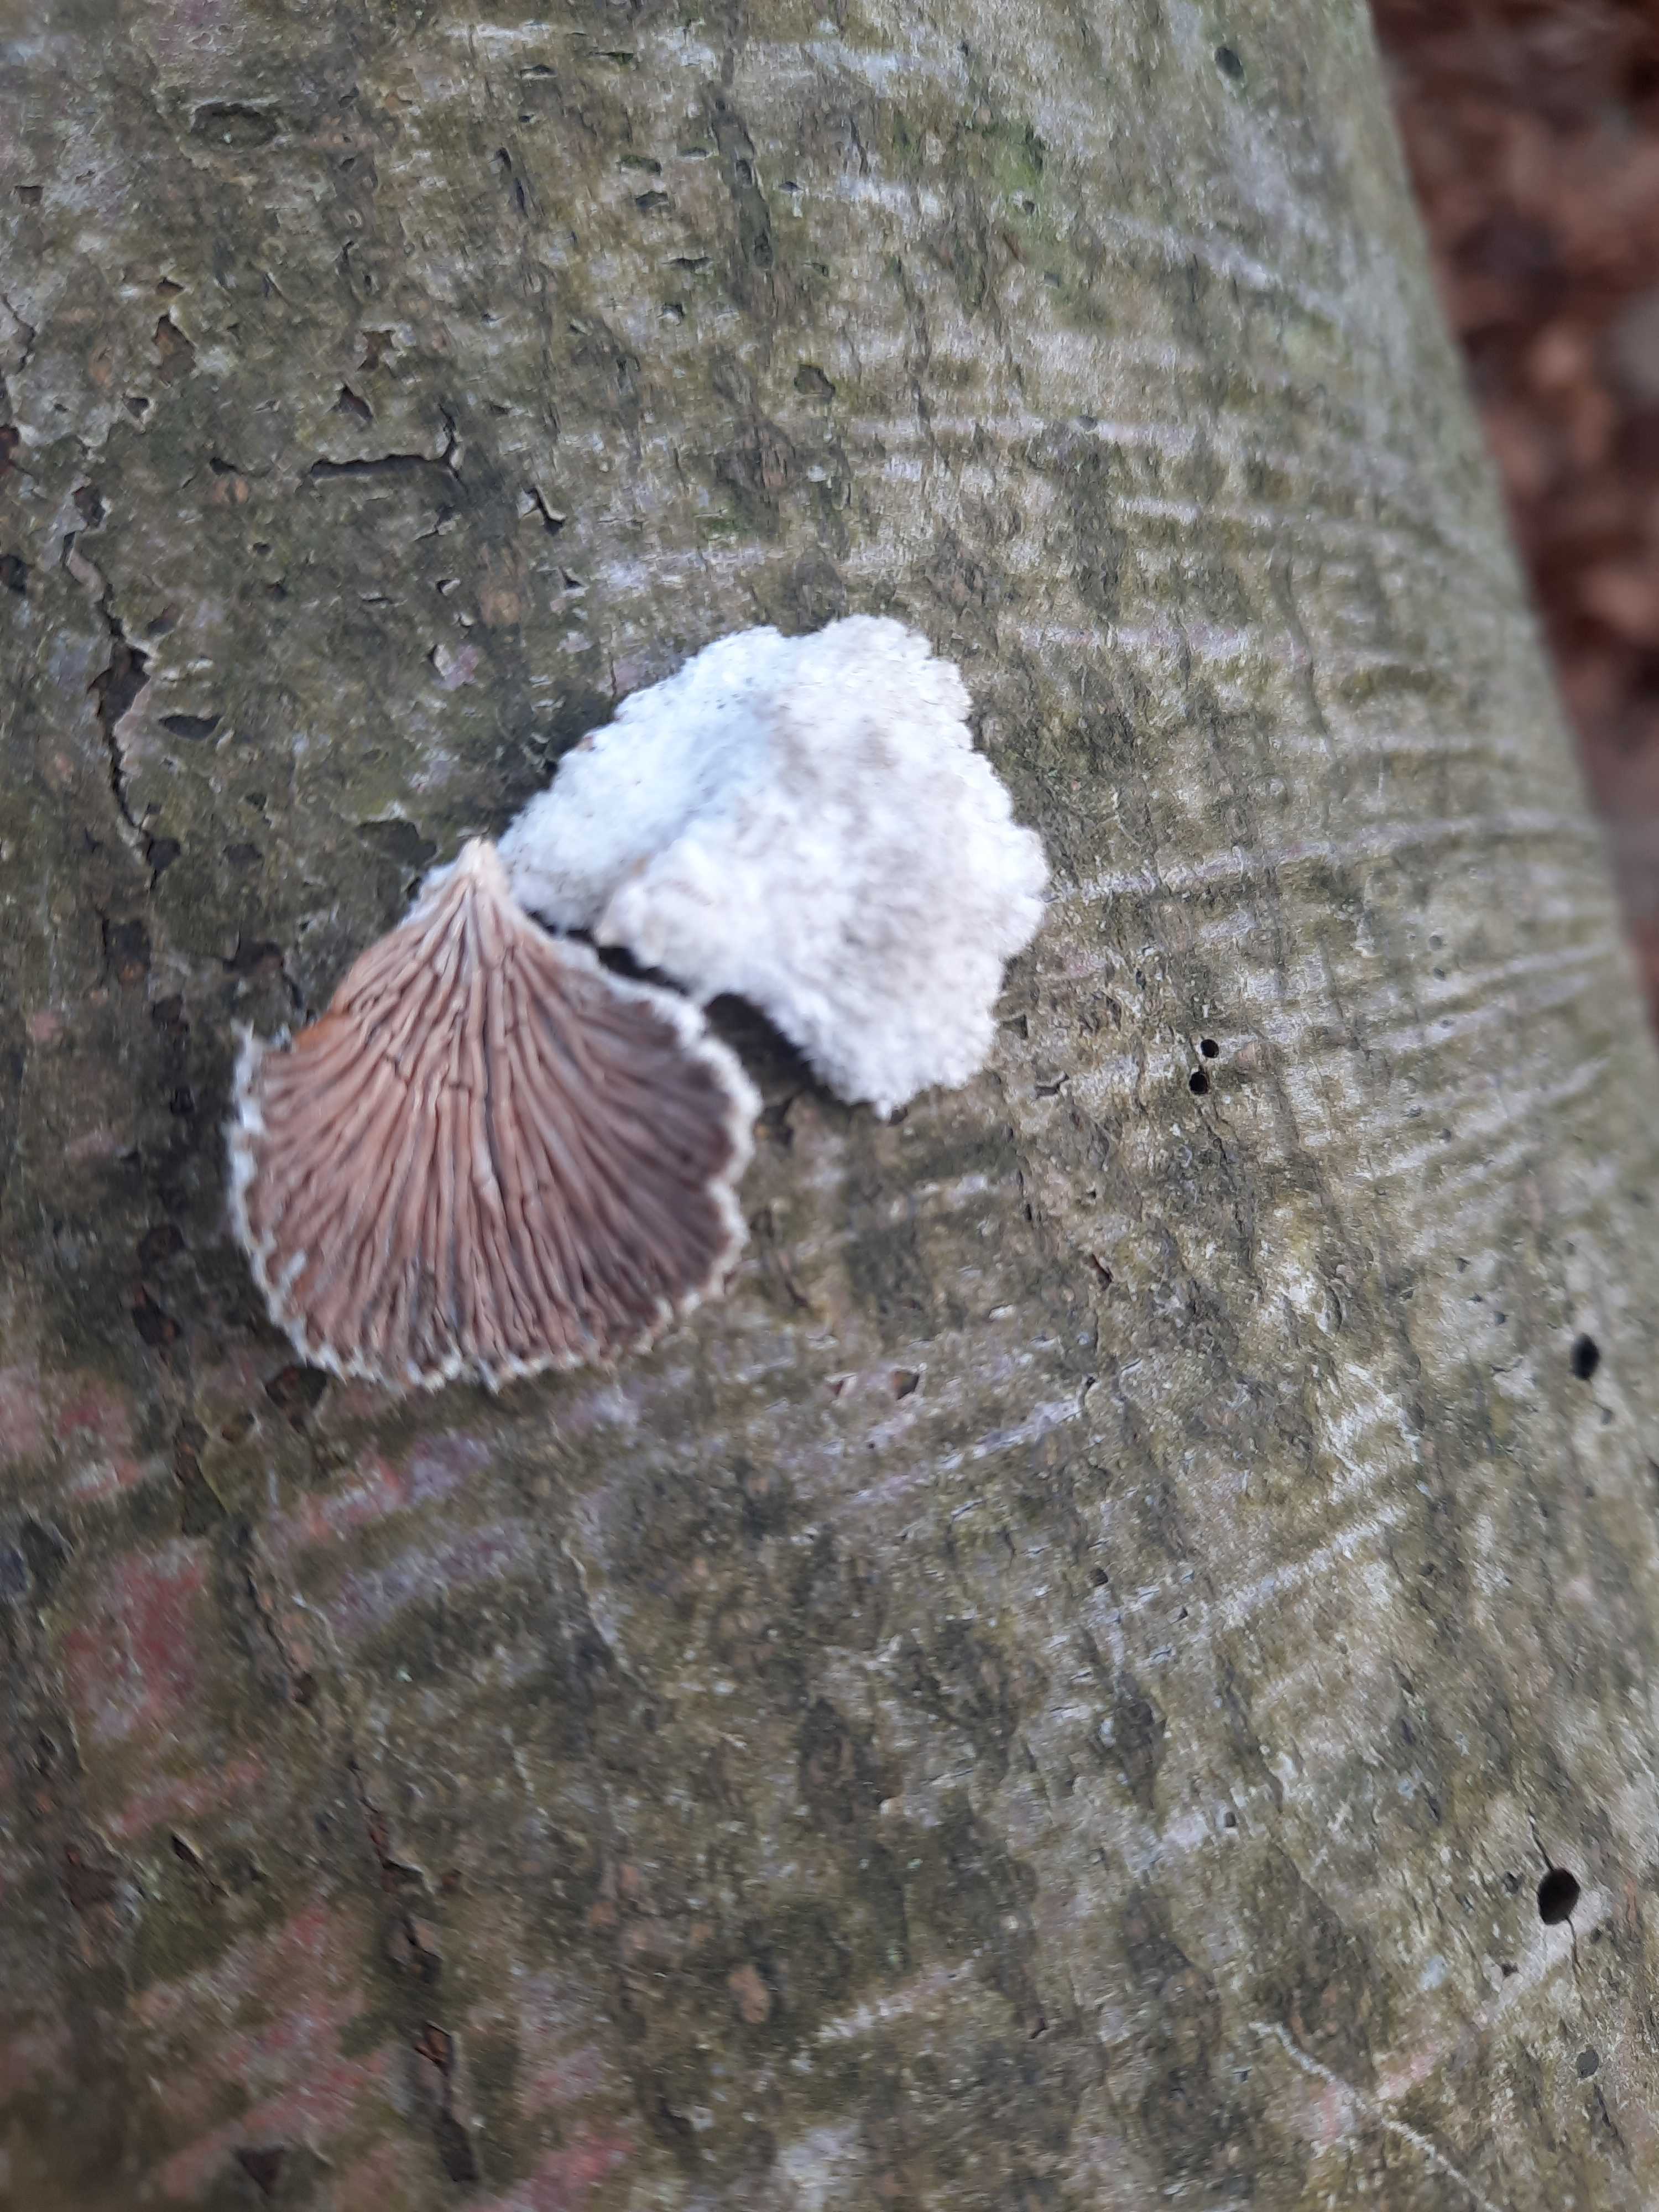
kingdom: Fungi
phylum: Basidiomycota
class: Agaricomycetes
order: Agaricales
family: Schizophyllaceae
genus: Schizophyllum
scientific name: Schizophyllum commune
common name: kløvblad
